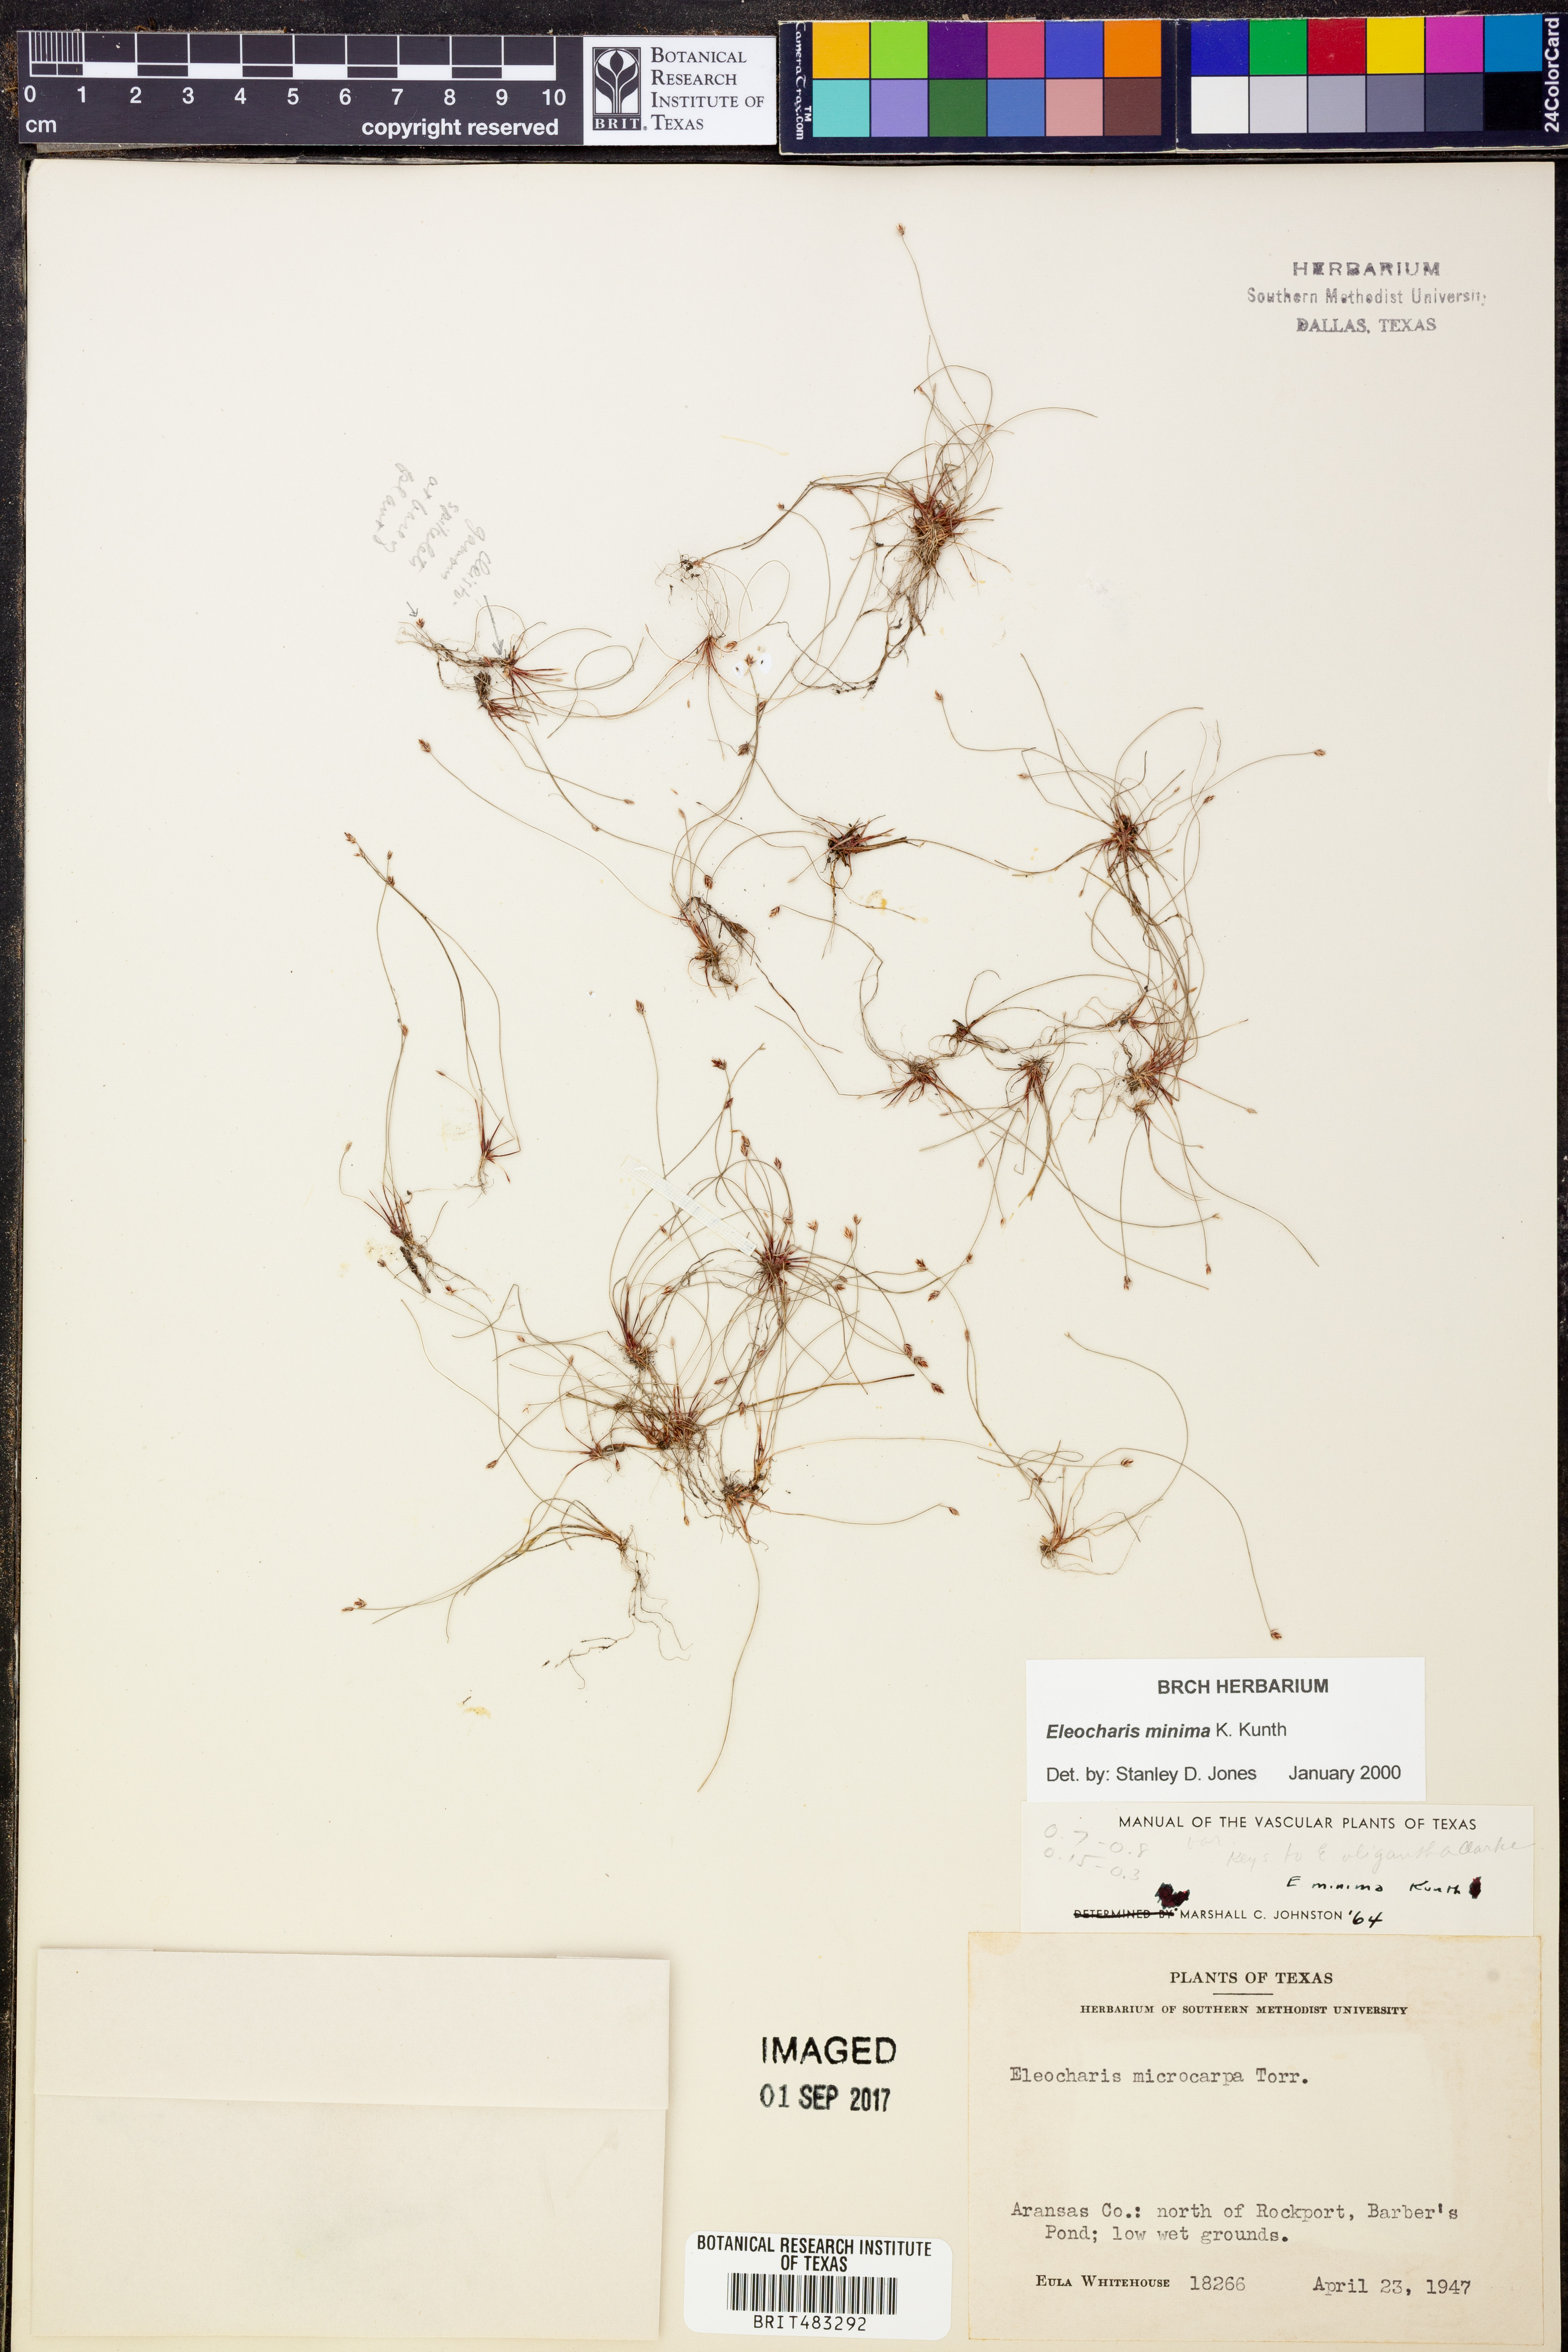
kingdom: Plantae
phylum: Tracheophyta
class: Liliopsida
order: Poales
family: Cyperaceae
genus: Eleocharis
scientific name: Eleocharis minima
